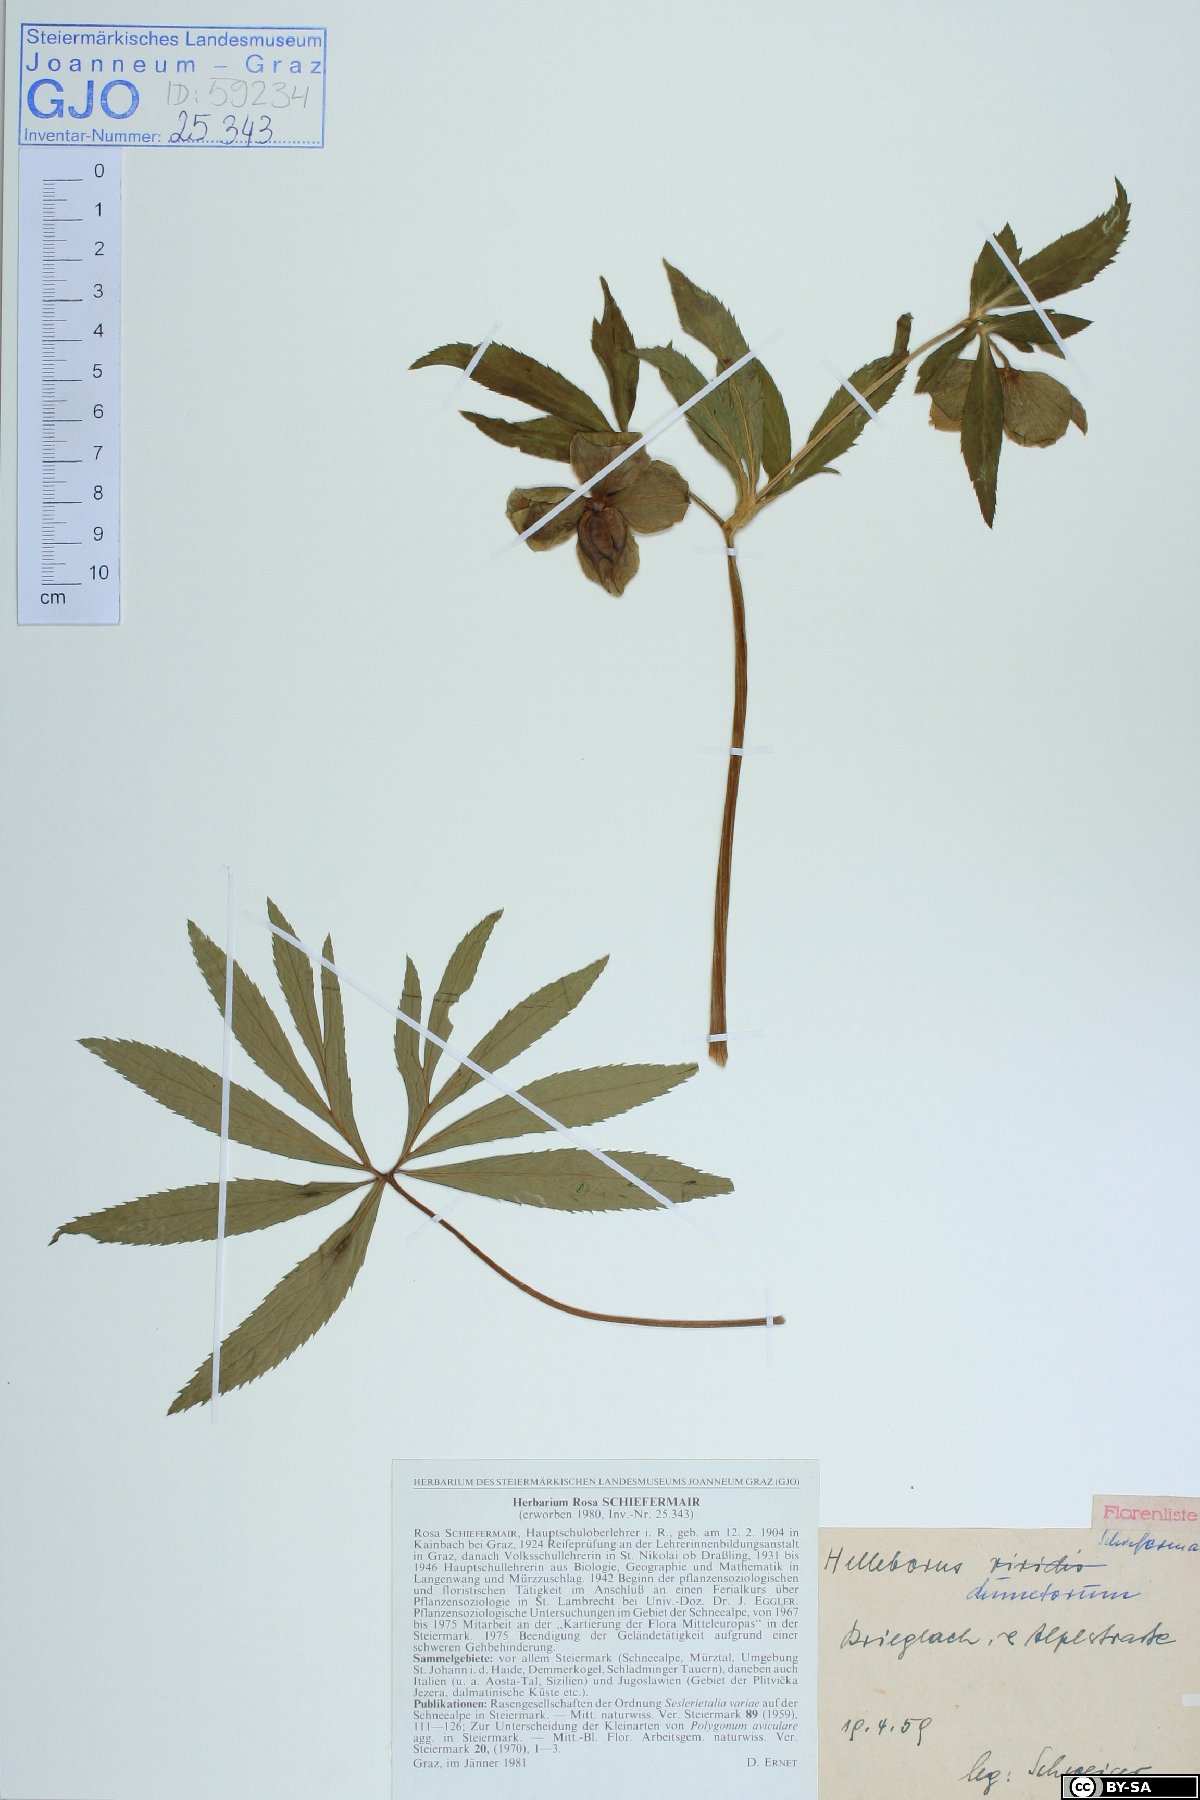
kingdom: Plantae
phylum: Tracheophyta
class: Magnoliopsida
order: Ranunculales
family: Ranunculaceae
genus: Helleborus
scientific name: Helleborus dumetorum
